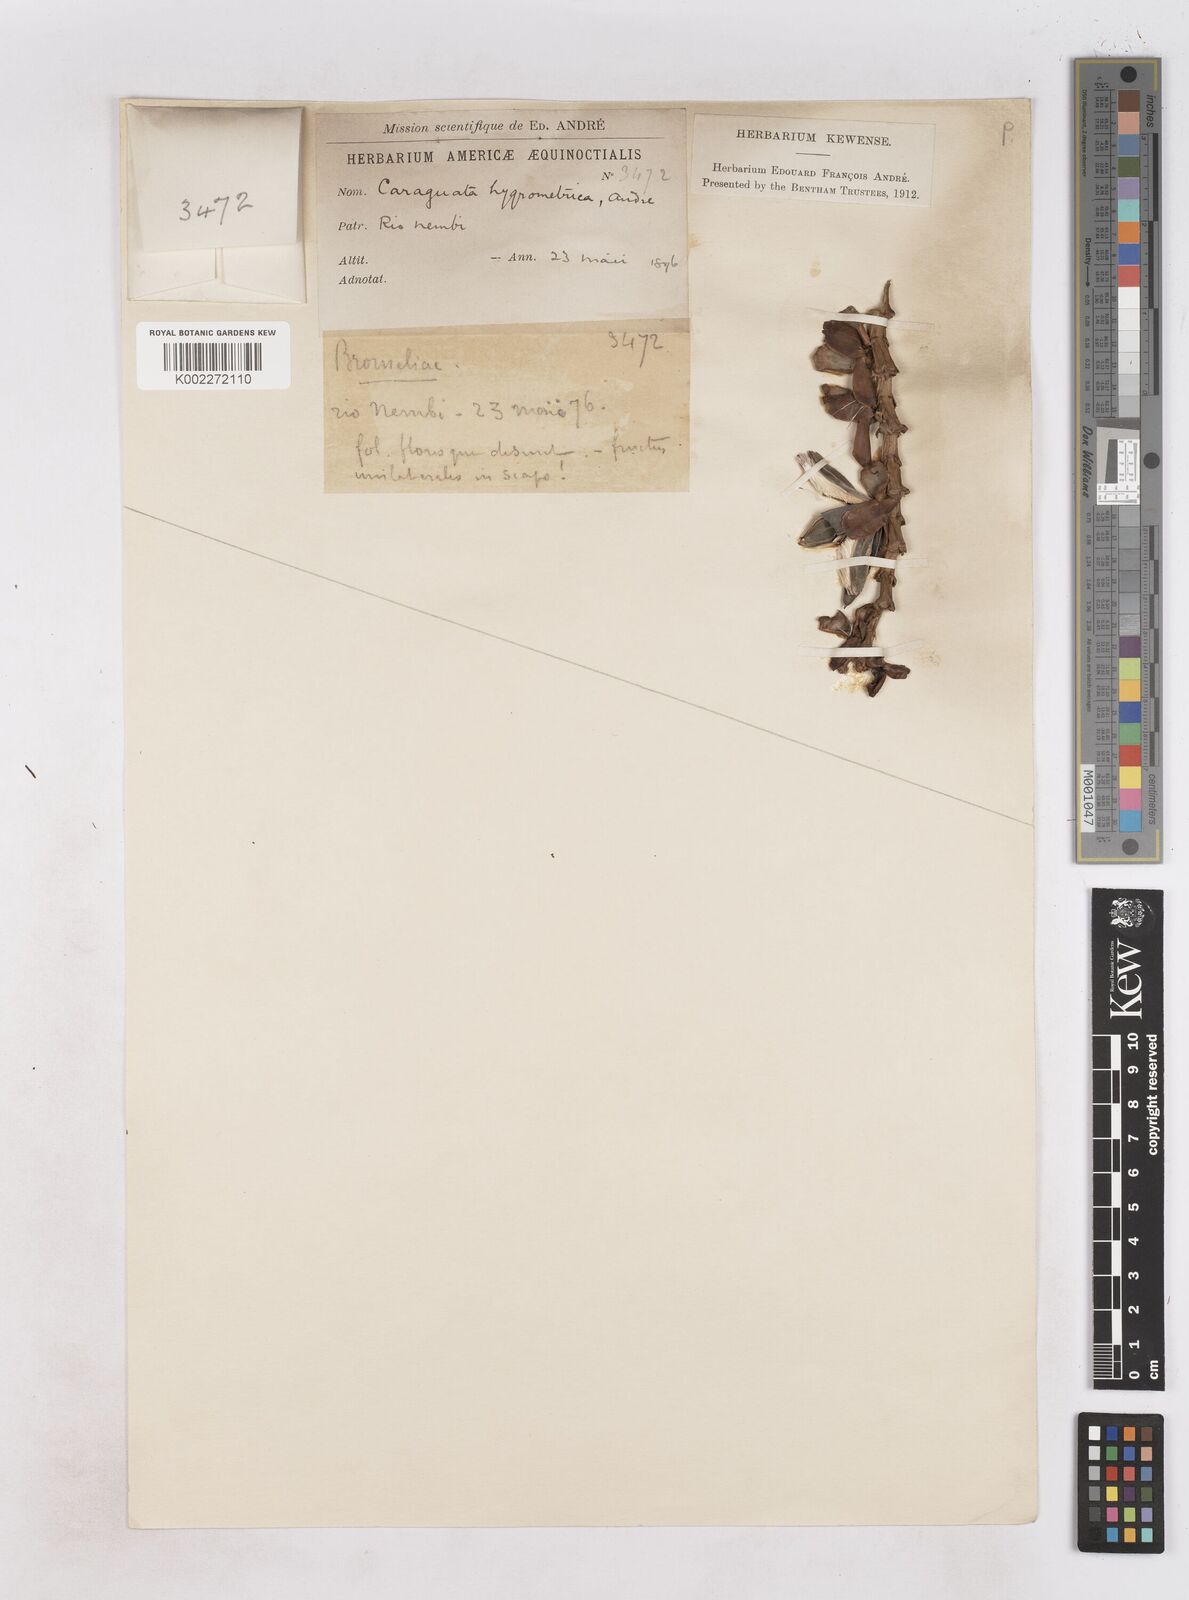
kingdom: Plantae
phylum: Tracheophyta
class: Liliopsida
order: Poales
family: Bromeliaceae
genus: Werauhia
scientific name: Werauhia hygrometrica
